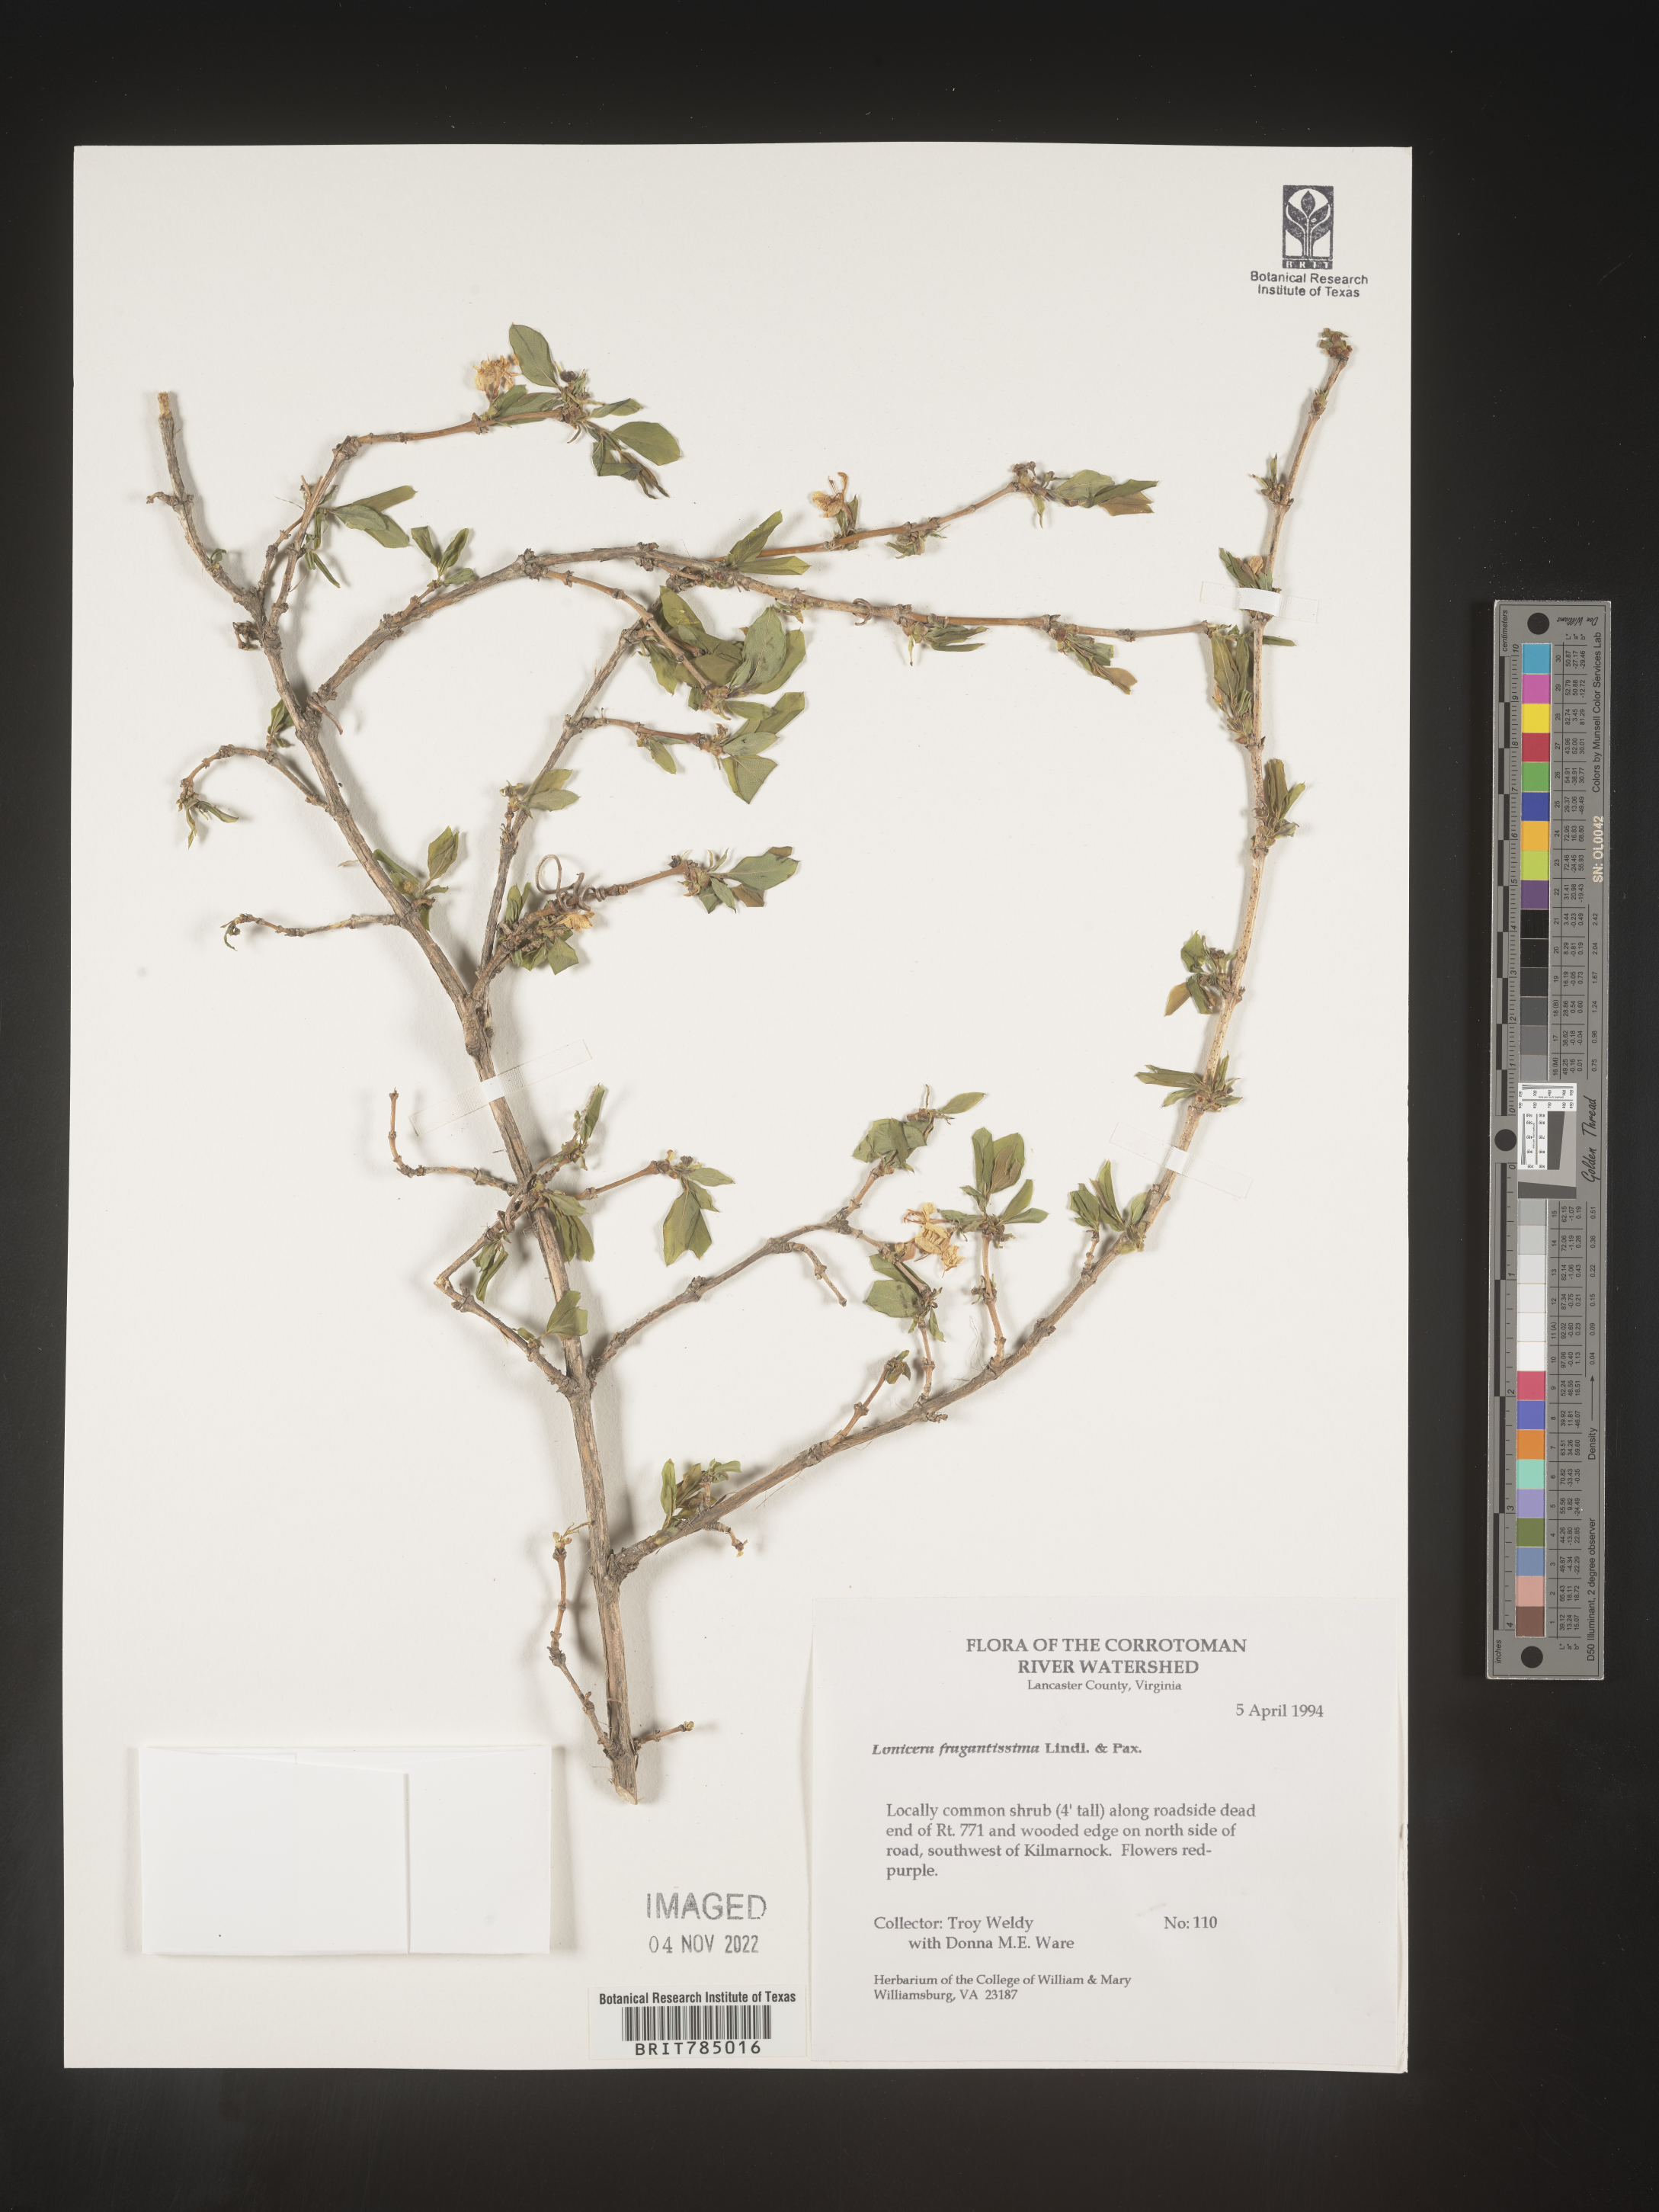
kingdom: Plantae
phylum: Tracheophyta
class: Magnoliopsida
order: Dipsacales
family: Caprifoliaceae
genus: Lonicera
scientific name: Lonicera
